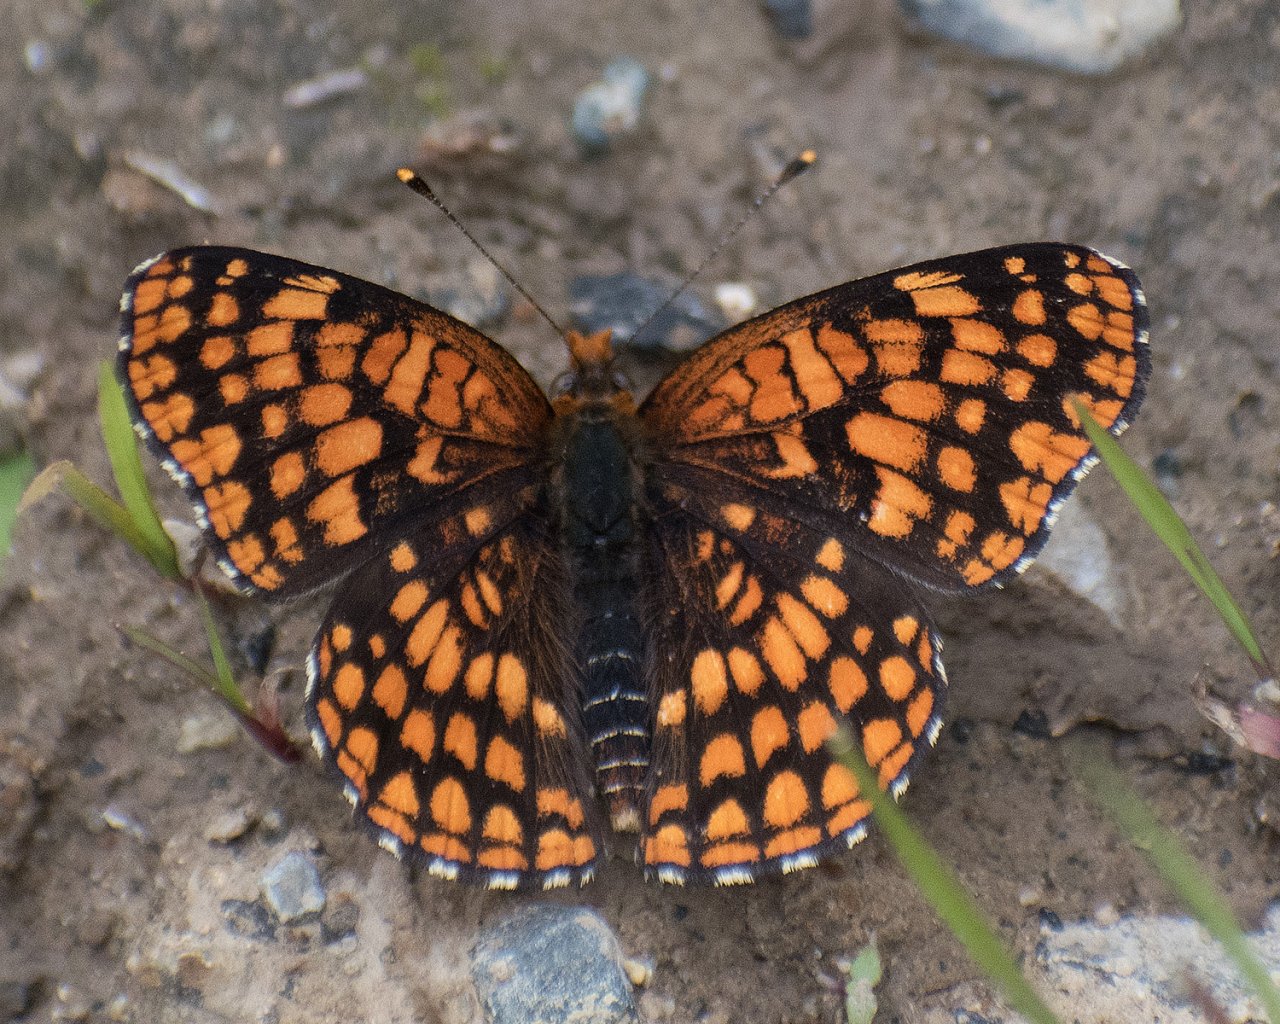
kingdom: Animalia
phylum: Arthropoda
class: Insecta
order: Lepidoptera
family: Nymphalidae
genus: Chlosyne
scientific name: Chlosyne palla
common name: Northern Checkerspot
